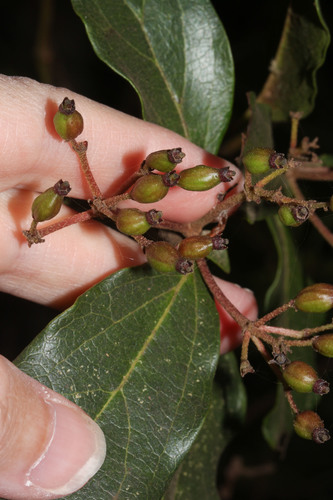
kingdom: Plantae
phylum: Tracheophyta
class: Magnoliopsida
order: Dipsacales
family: Viburnaceae
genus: Viburnum
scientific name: Viburnum tinus
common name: Laurustinus
